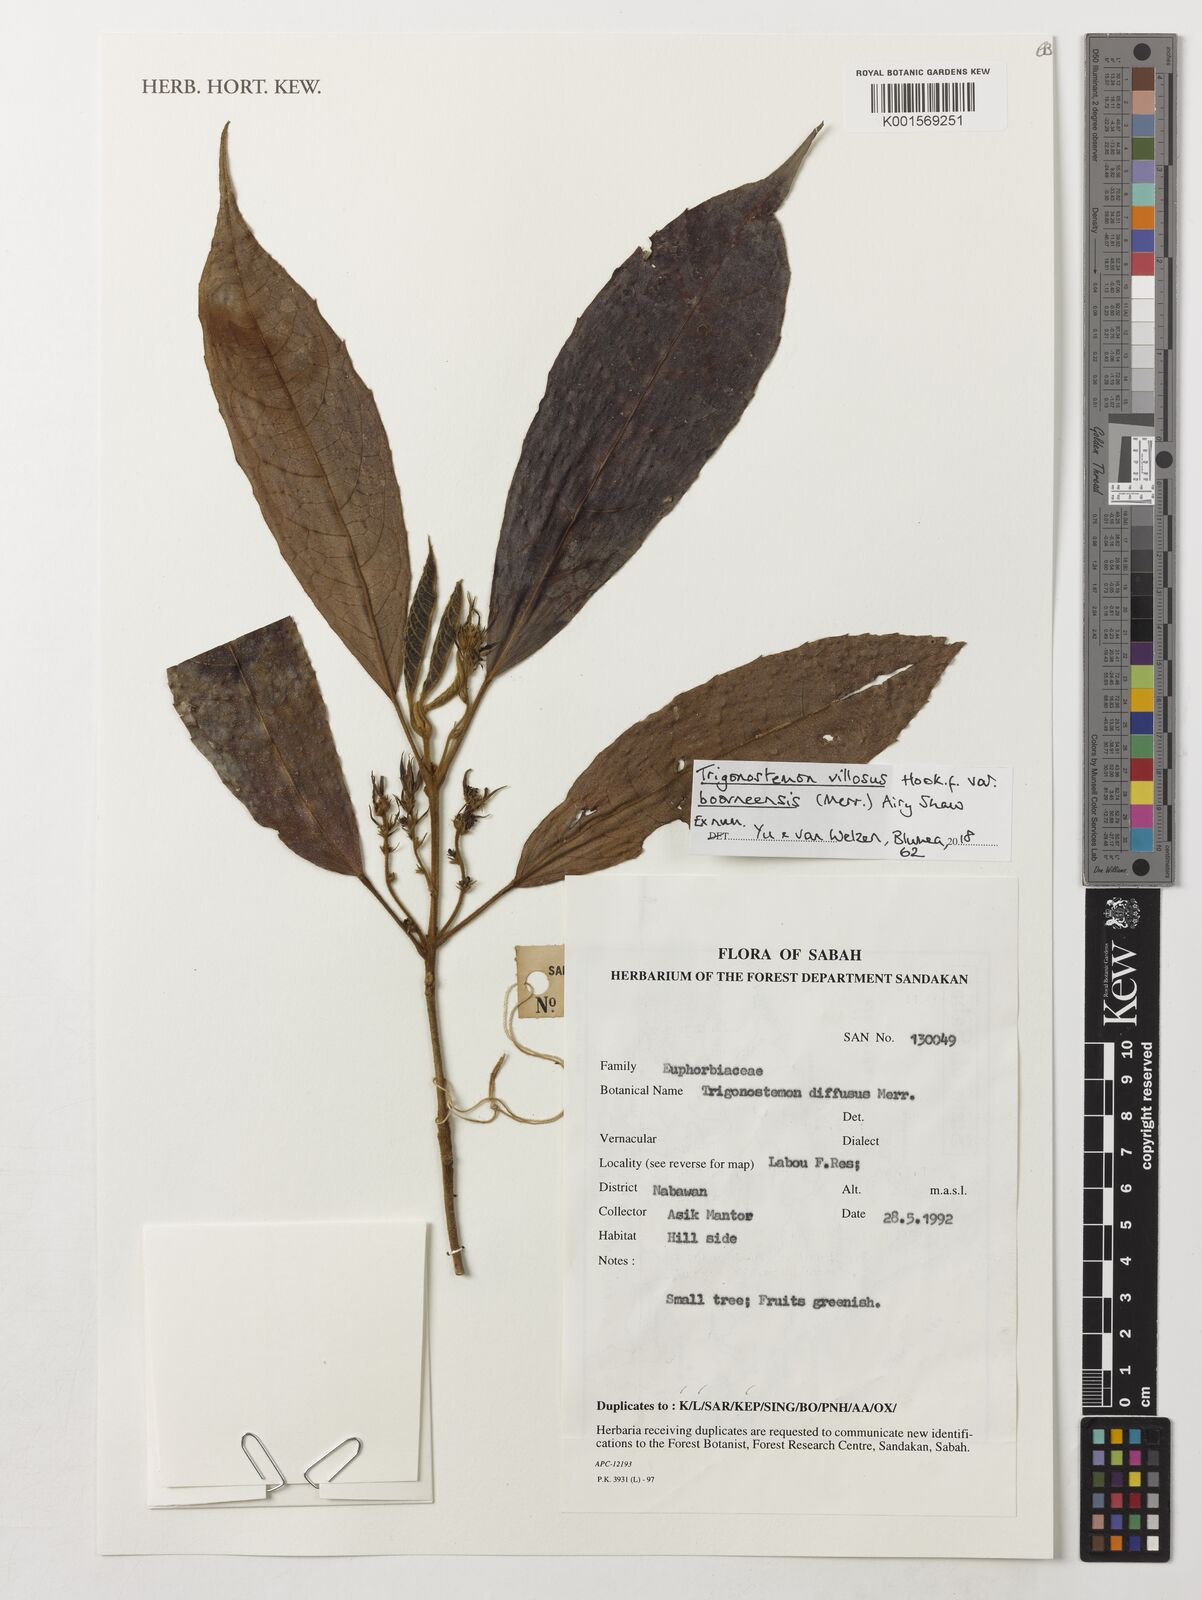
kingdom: Plantae
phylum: Tracheophyta
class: Magnoliopsida
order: Malpighiales
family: Euphorbiaceae
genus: Trigonostemon
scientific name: Trigonostemon villosus
